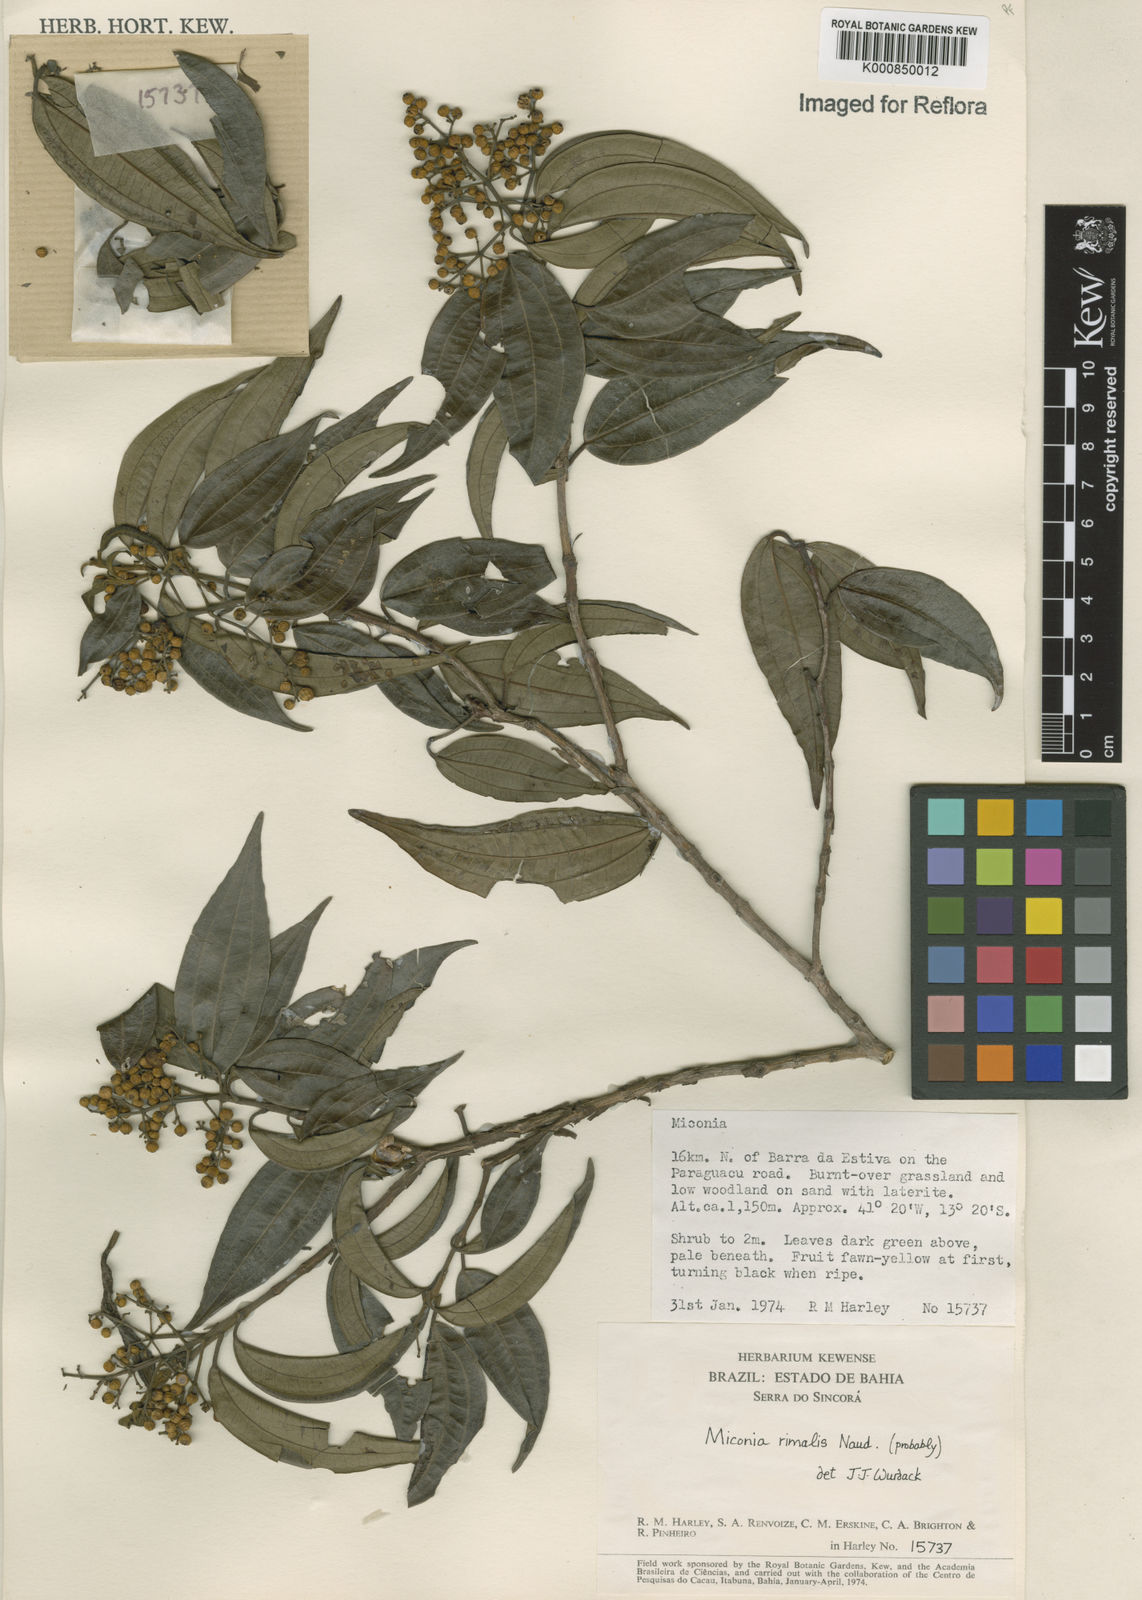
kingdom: Plantae
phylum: Tracheophyta
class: Magnoliopsida
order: Myrtales
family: Melastomataceae
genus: Miconia
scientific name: Miconia
